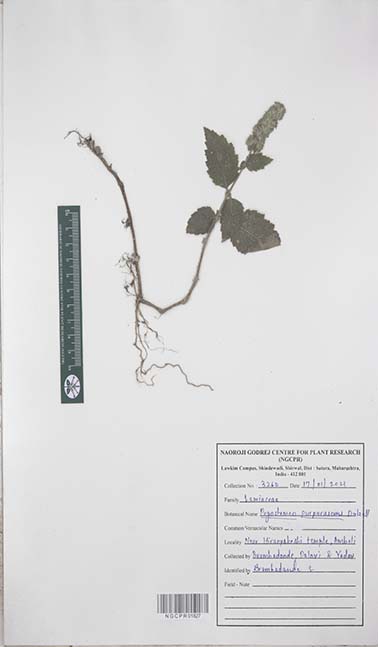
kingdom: Plantae
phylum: Tracheophyta
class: Magnoliopsida
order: Lamiales
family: Lamiaceae
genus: Pogostemon
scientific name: Pogostemon purpurascens
